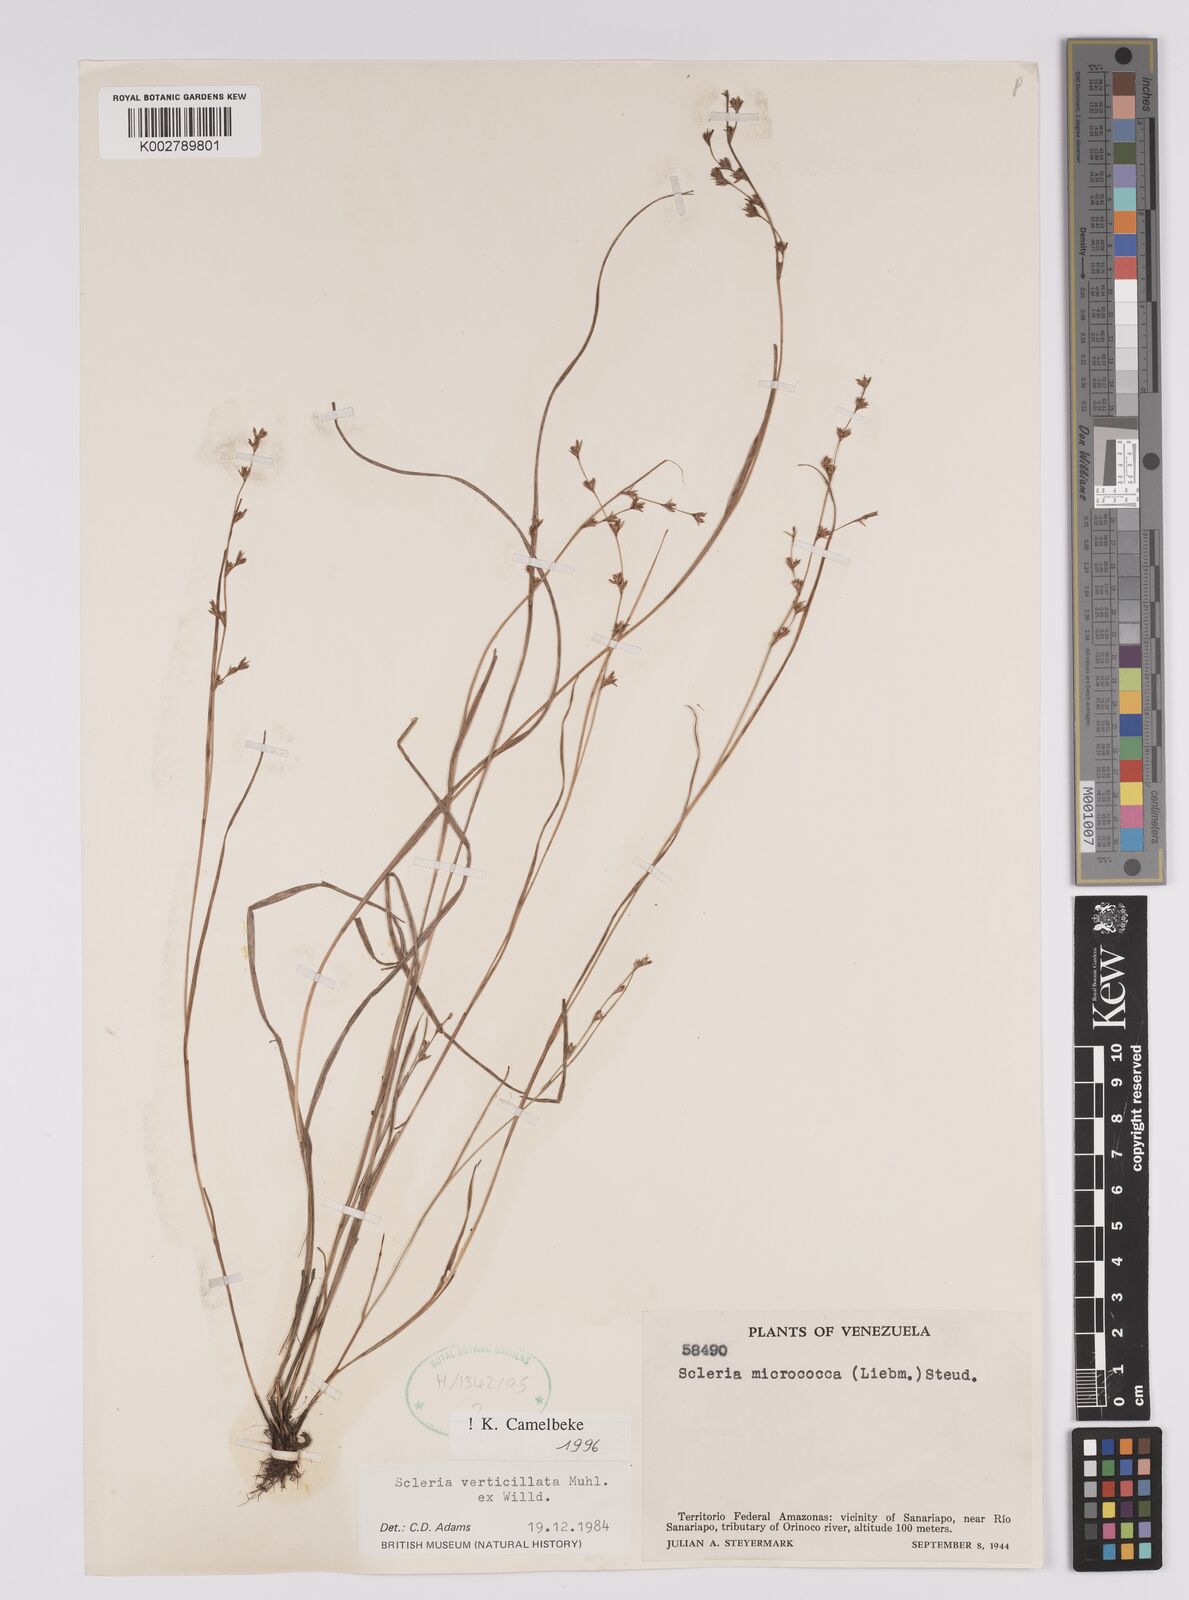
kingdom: Plantae
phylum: Tracheophyta
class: Liliopsida
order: Poales
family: Cyperaceae
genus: Scleria
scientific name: Scleria verticillata
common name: Low nutrush
